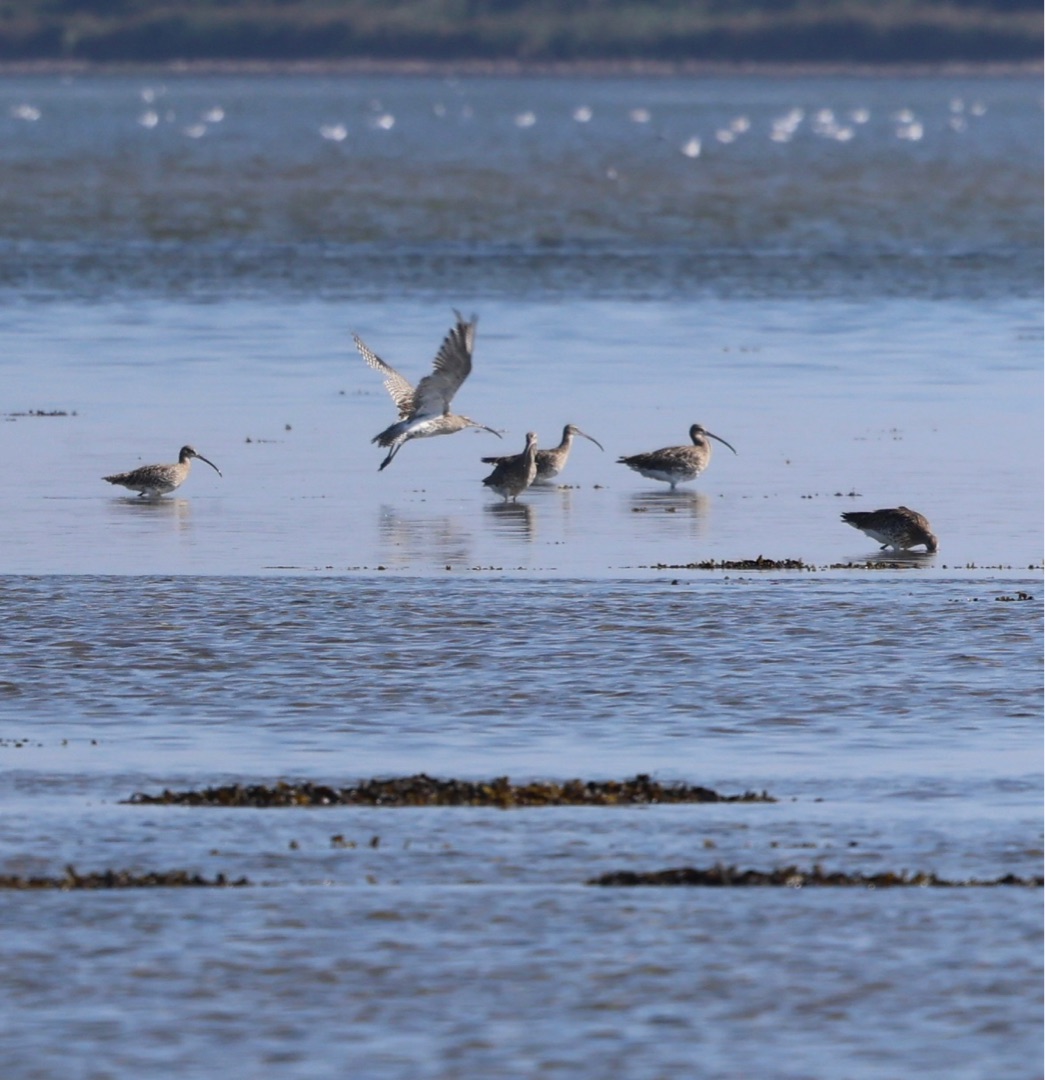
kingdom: Animalia
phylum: Chordata
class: Aves
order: Charadriiformes
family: Scolopacidae
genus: Numenius
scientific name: Numenius arquata
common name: Storspove
